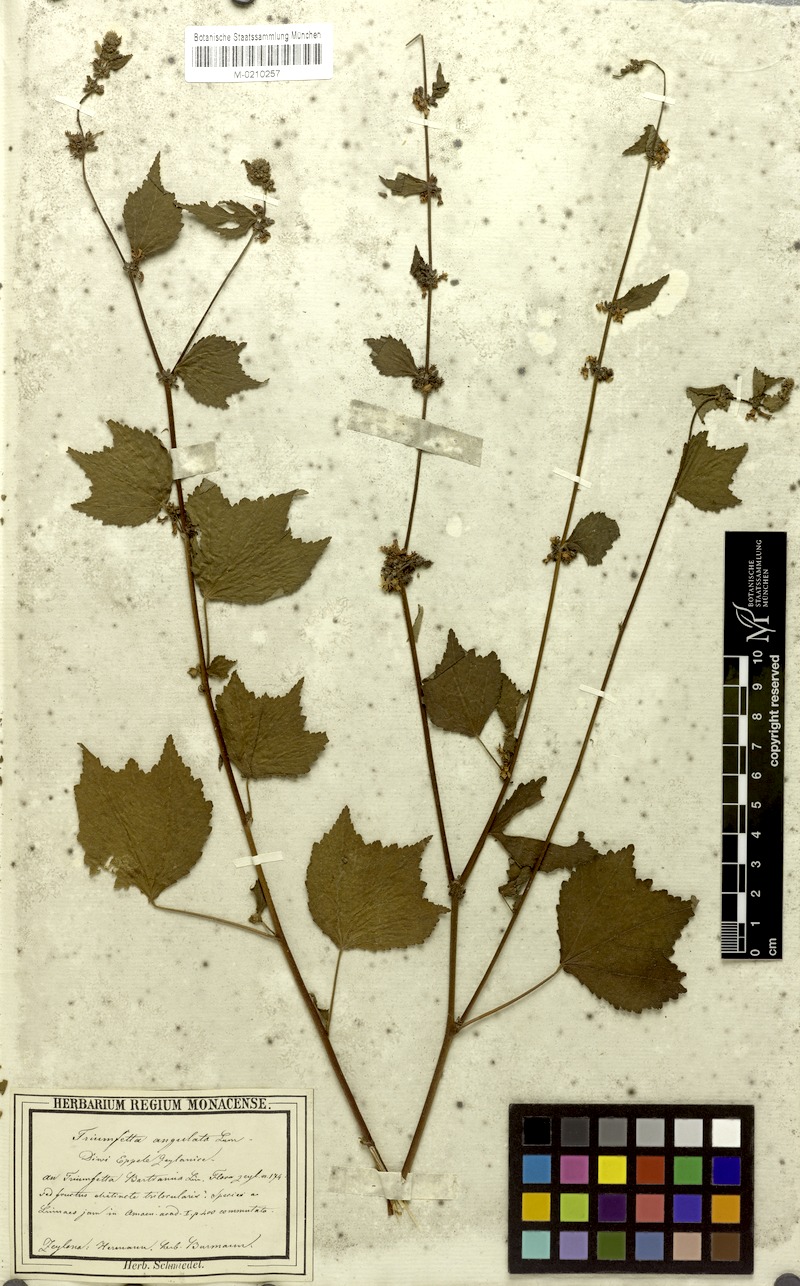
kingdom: Plantae
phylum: Tracheophyta
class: Magnoliopsida
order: Malvales
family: Malvaceae
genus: Triumfetta
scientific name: Triumfetta rhomboidea
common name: Diamond burbark
